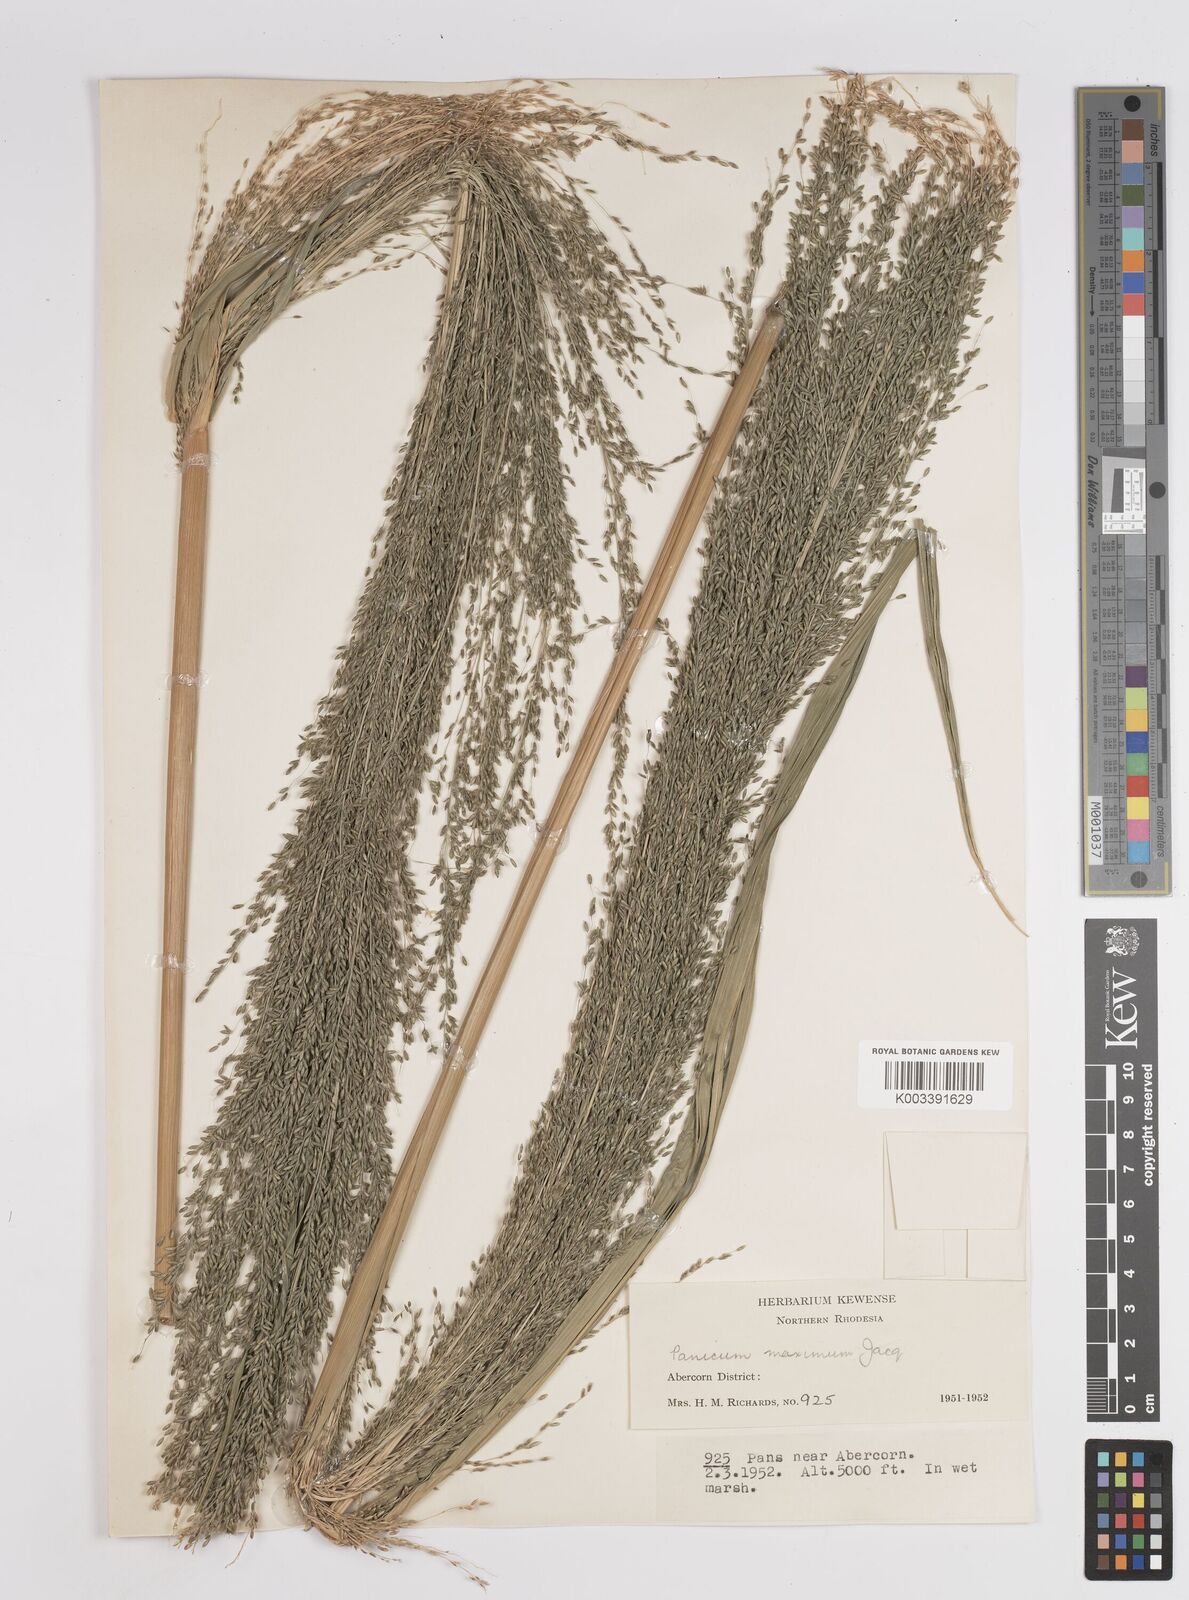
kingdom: Plantae
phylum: Tracheophyta
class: Liliopsida
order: Poales
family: Poaceae
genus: Megathyrsus
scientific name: Megathyrsus maximus
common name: Guineagrass
